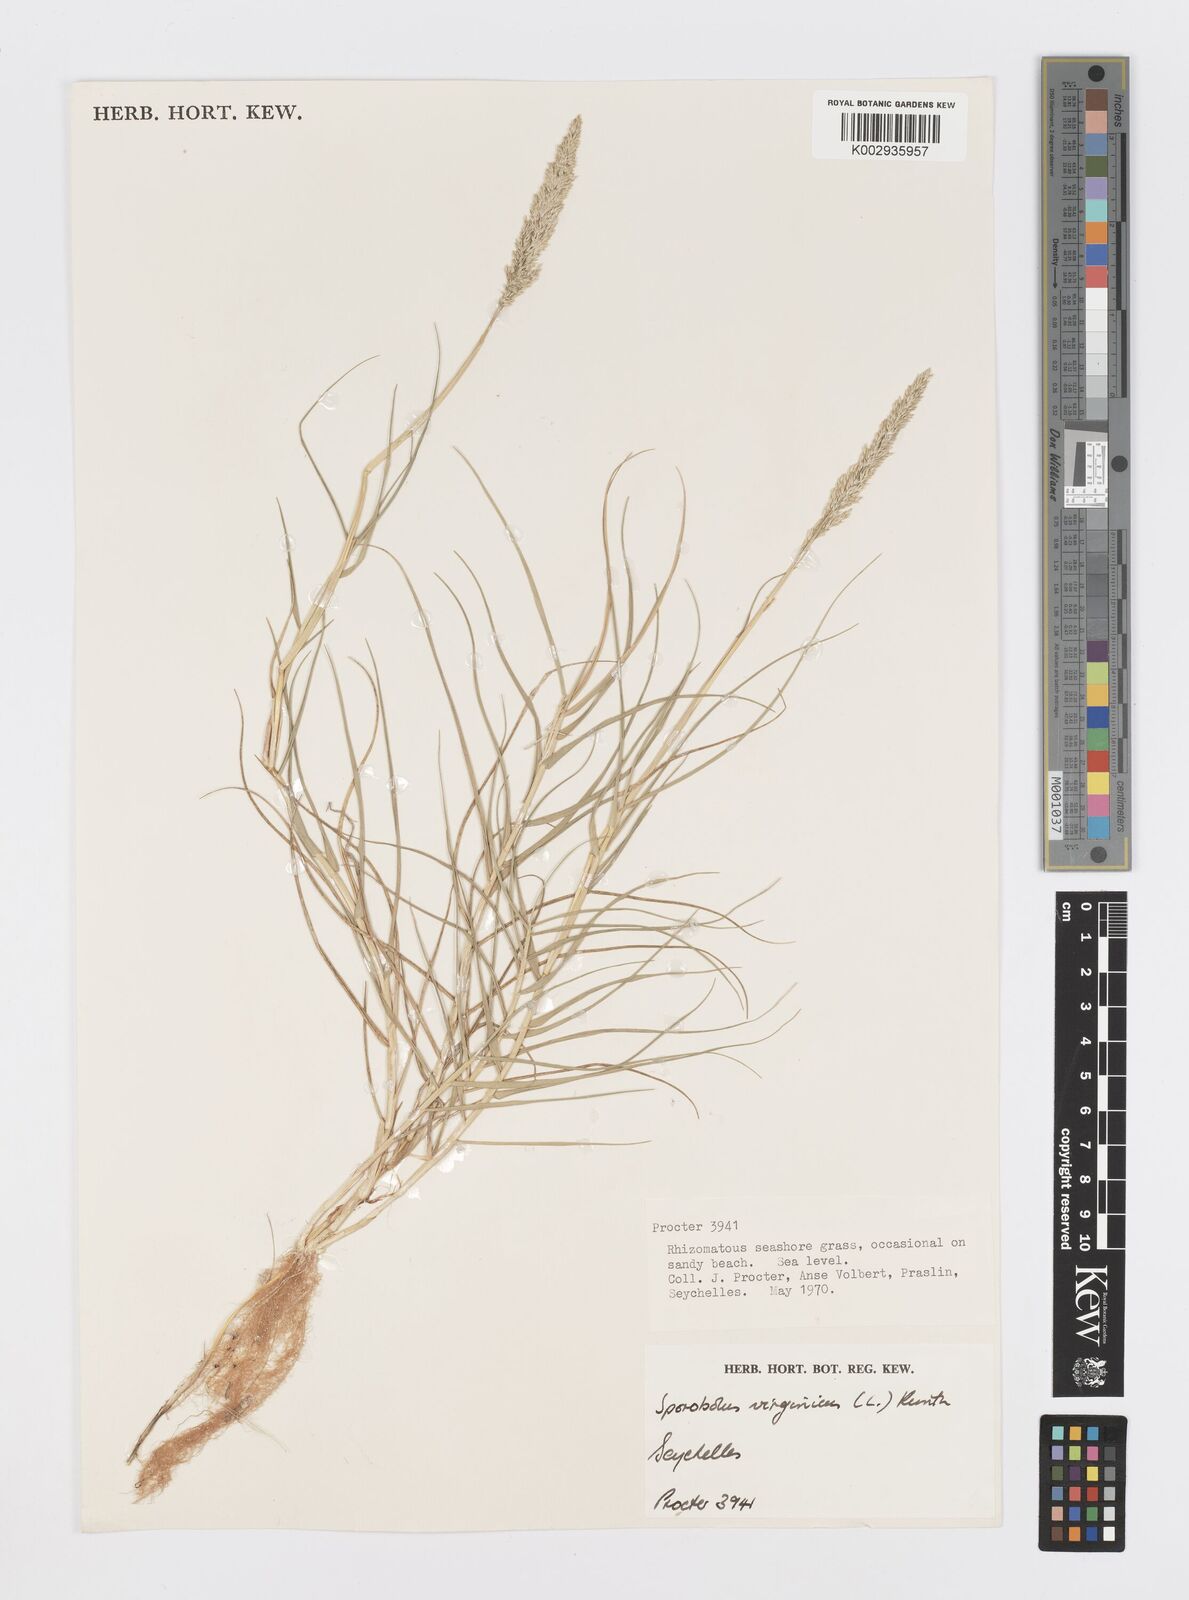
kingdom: Plantae
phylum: Tracheophyta
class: Liliopsida
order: Poales
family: Poaceae
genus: Sporobolus
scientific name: Sporobolus virginicus
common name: Beach dropseed
